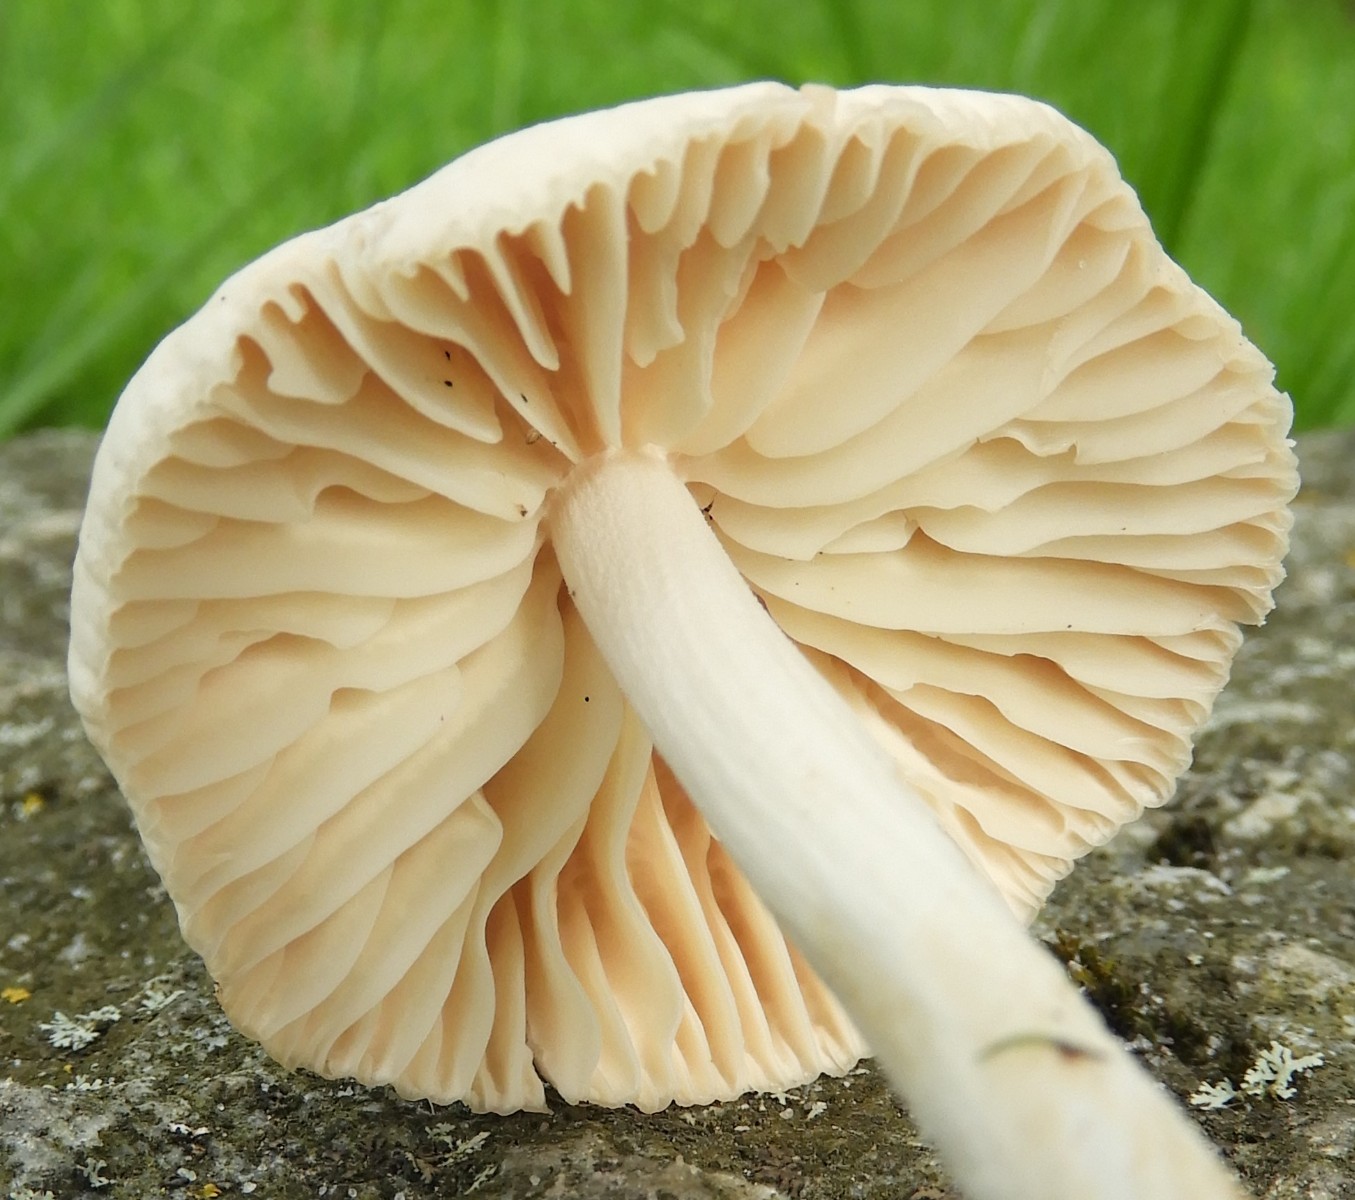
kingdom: Fungi
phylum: Basidiomycota
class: Agaricomycetes
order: Agaricales
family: Marasmiaceae
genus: Marasmius
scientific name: Marasmius oreades
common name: elledans-bruskhat
